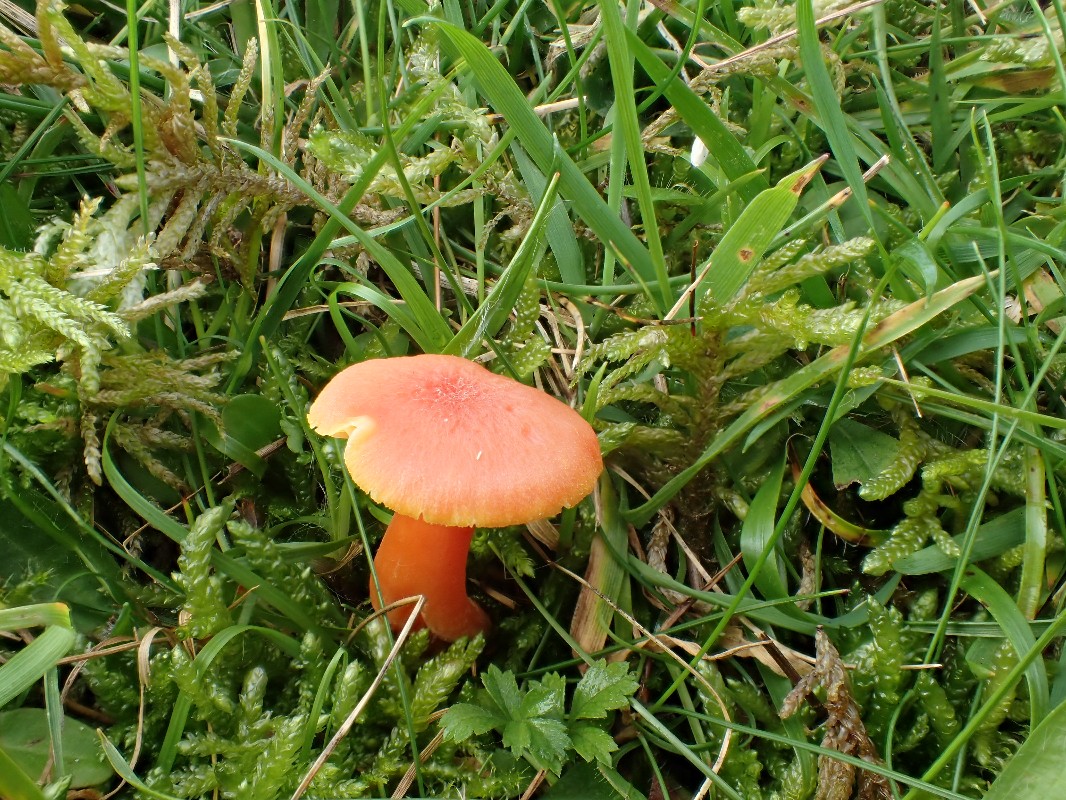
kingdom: Fungi
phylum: Basidiomycota
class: Agaricomycetes
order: Agaricales
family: Hygrophoraceae
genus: Hygrocybe
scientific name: Hygrocybe reidii
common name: honning-vokshat
